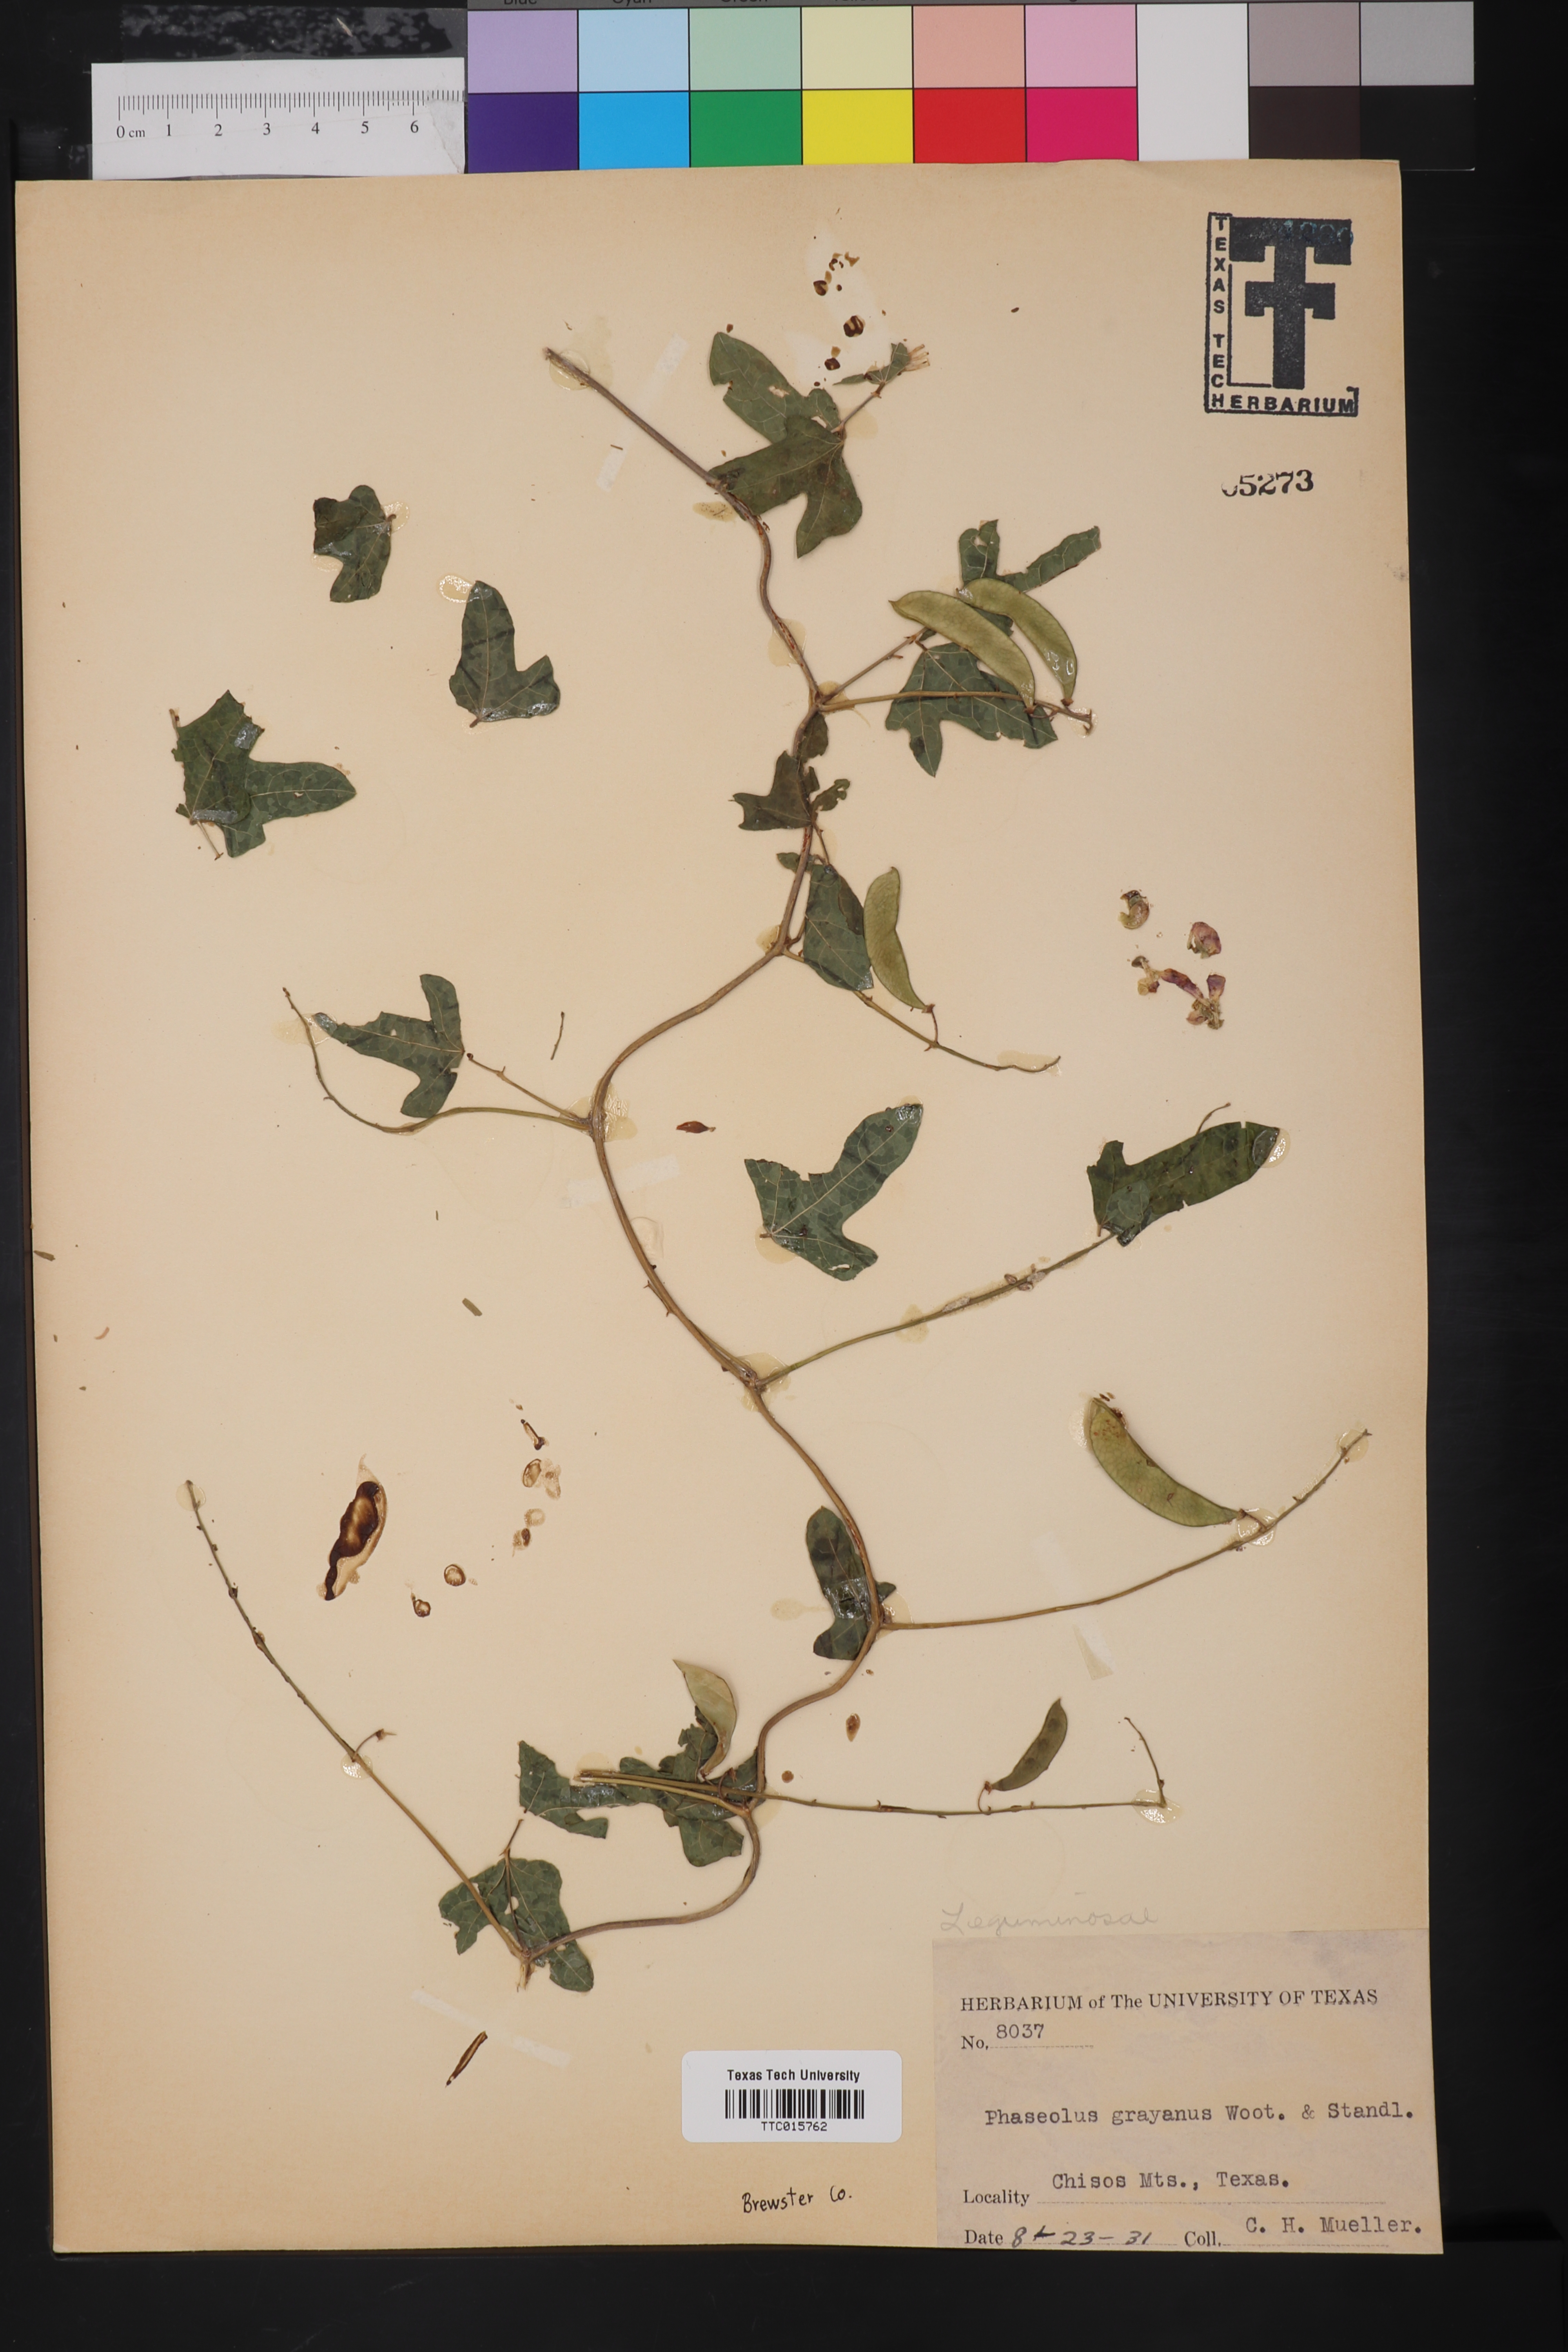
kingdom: Plantae
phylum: Tracheophyta
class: Magnoliopsida
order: Fabales
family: Fabaceae
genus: Phaseolus
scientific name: Phaseolus pedicellatus
